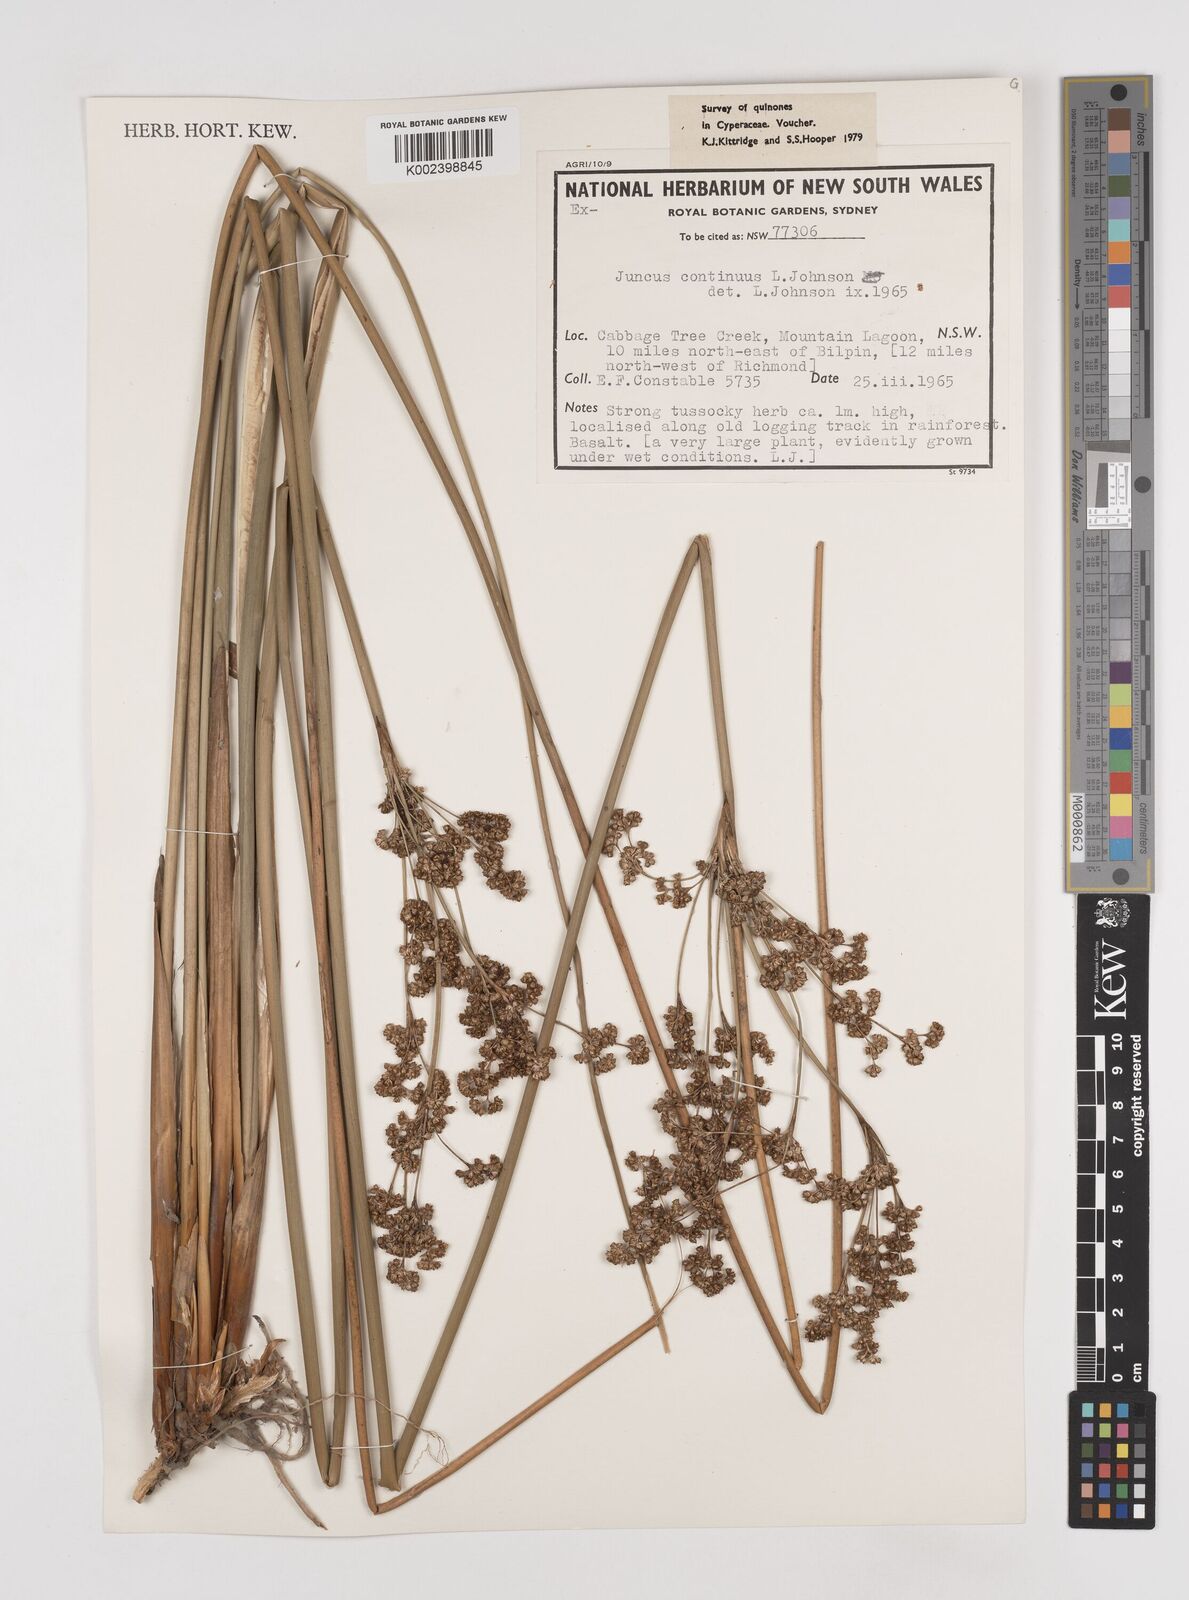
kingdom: Plantae
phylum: Tracheophyta
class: Liliopsida
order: Poales
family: Juncaceae
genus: Juncus
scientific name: Juncus continuus
